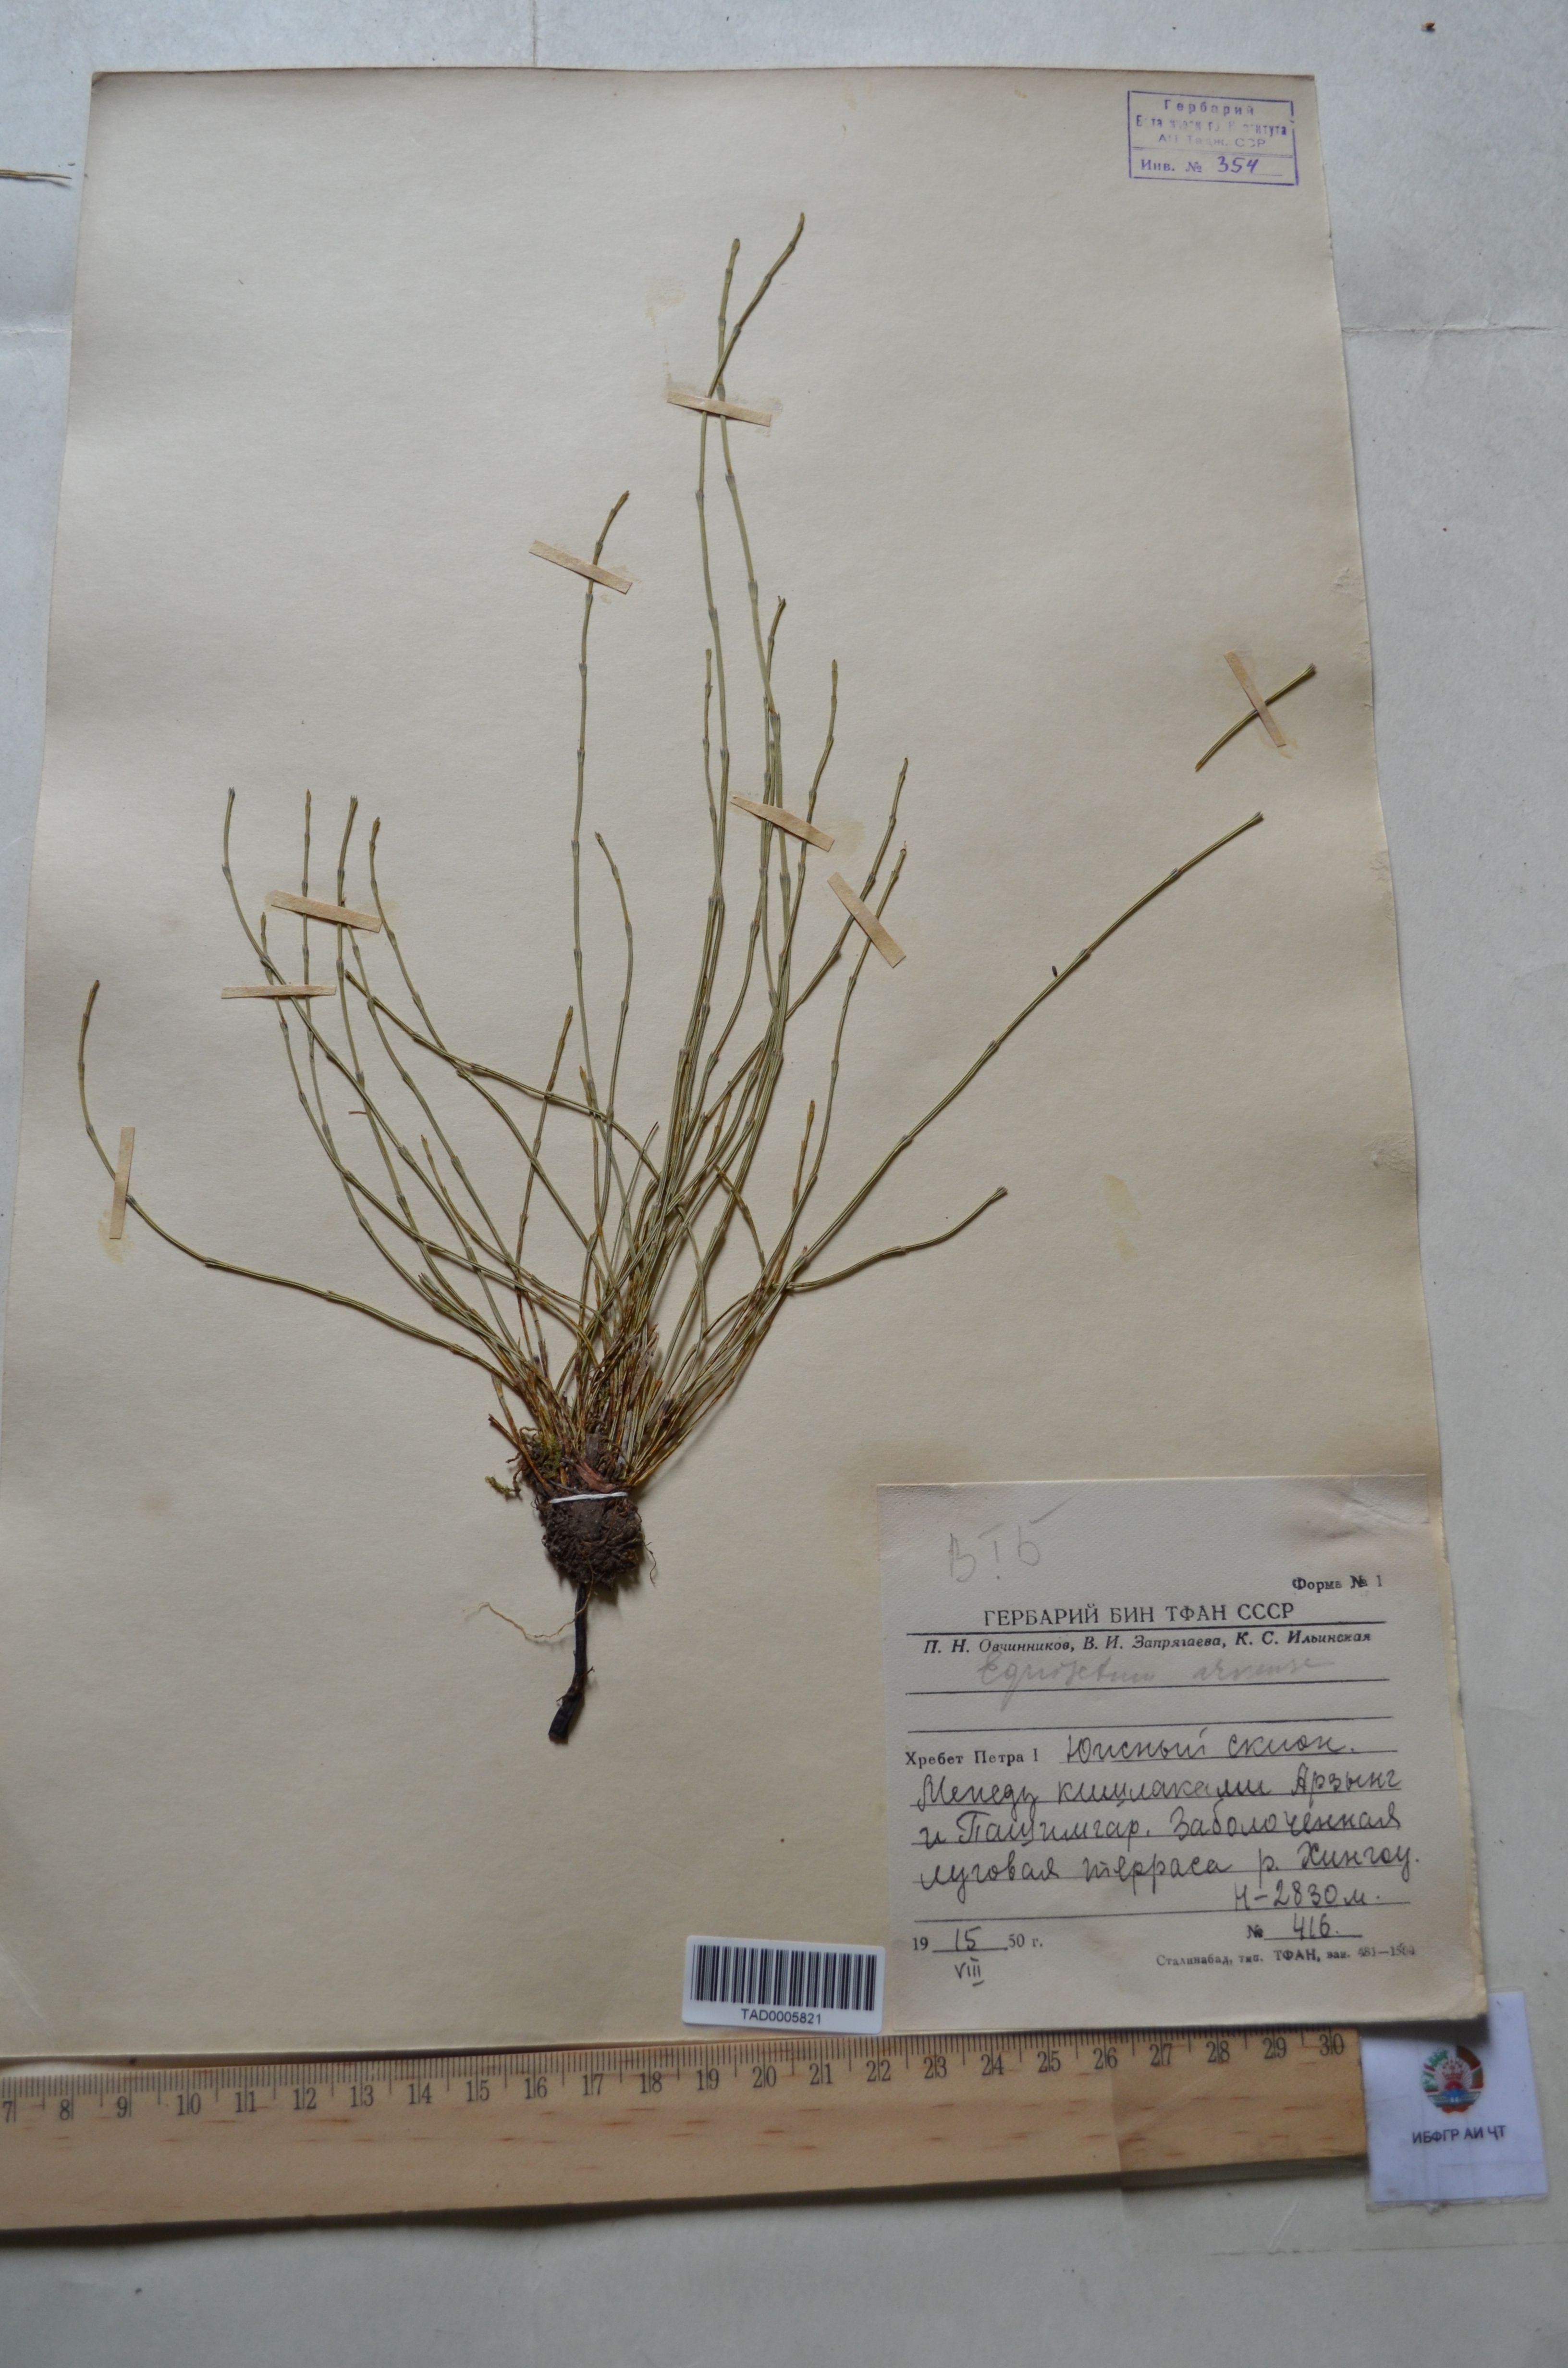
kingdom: Plantae
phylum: Tracheophyta
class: Polypodiopsida
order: Equisetales
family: Equisetaceae
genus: Equisetum
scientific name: Equisetum arvense
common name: Field horsetail
